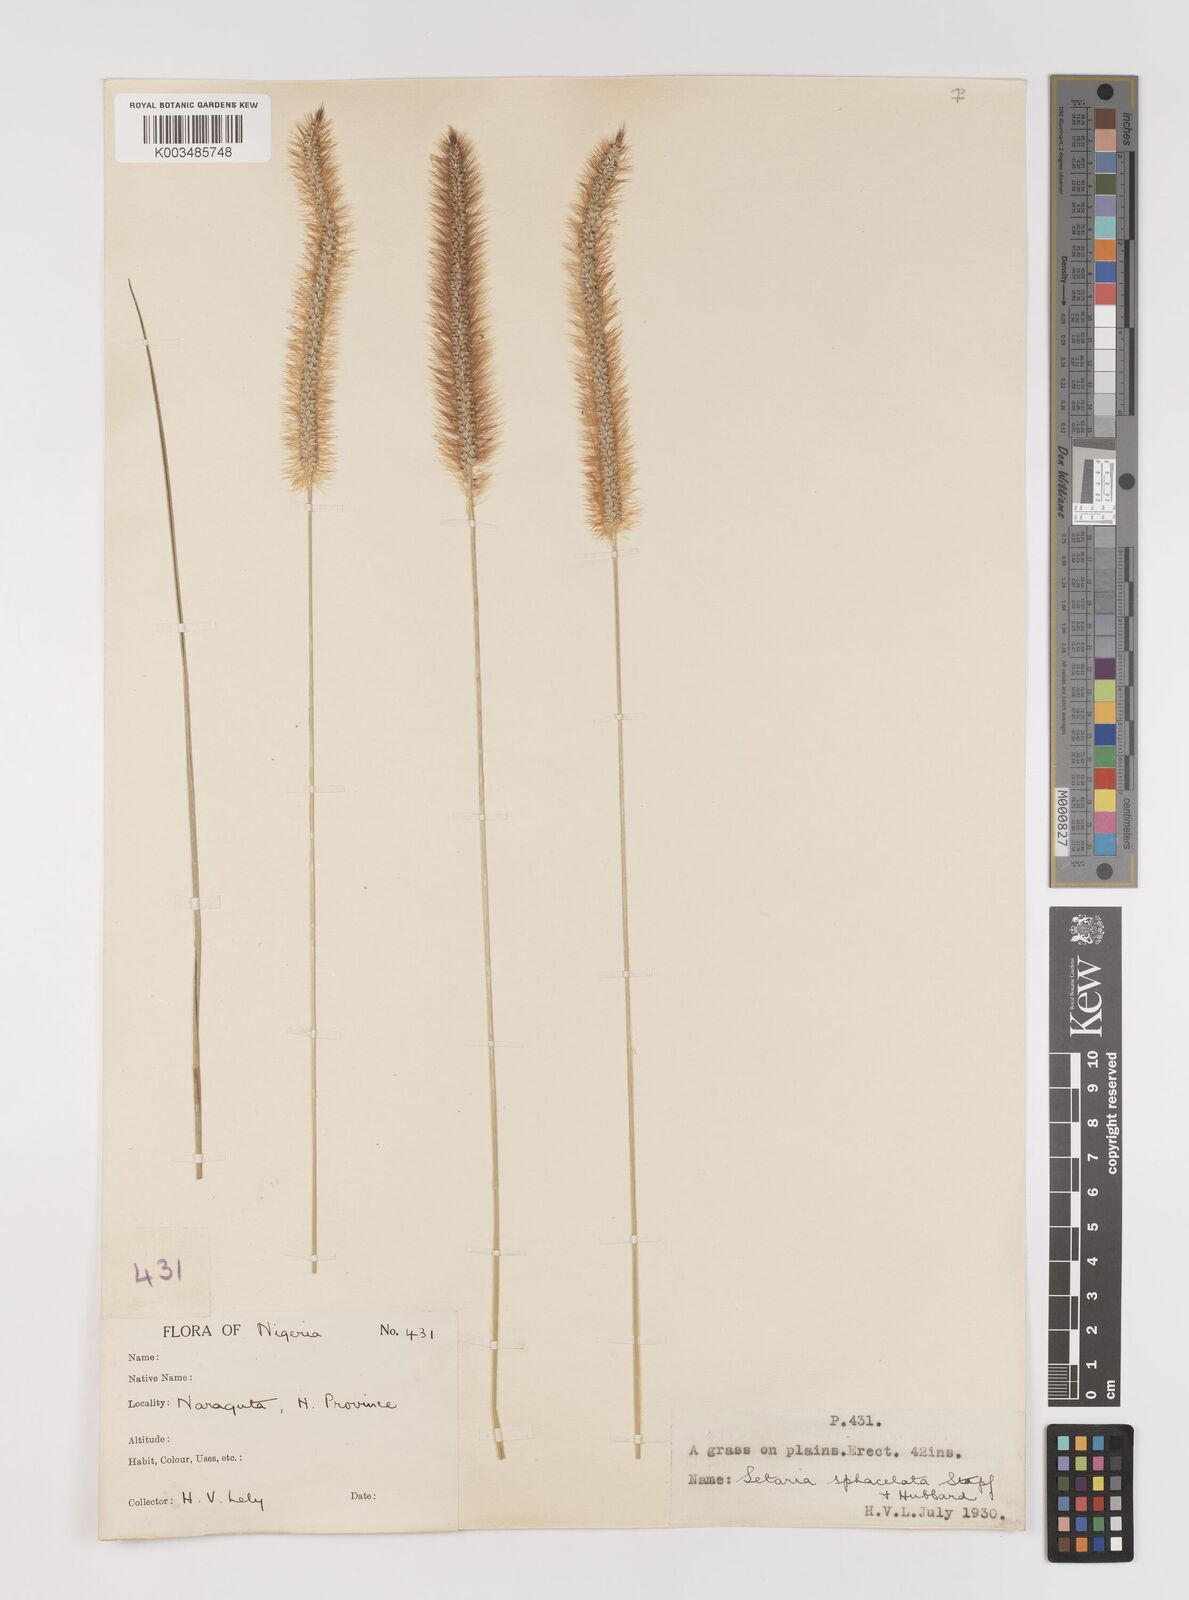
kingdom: Plantae
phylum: Tracheophyta
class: Liliopsida
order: Poales
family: Poaceae
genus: Setaria
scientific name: Setaria sphacelata
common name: African bristlegrass
